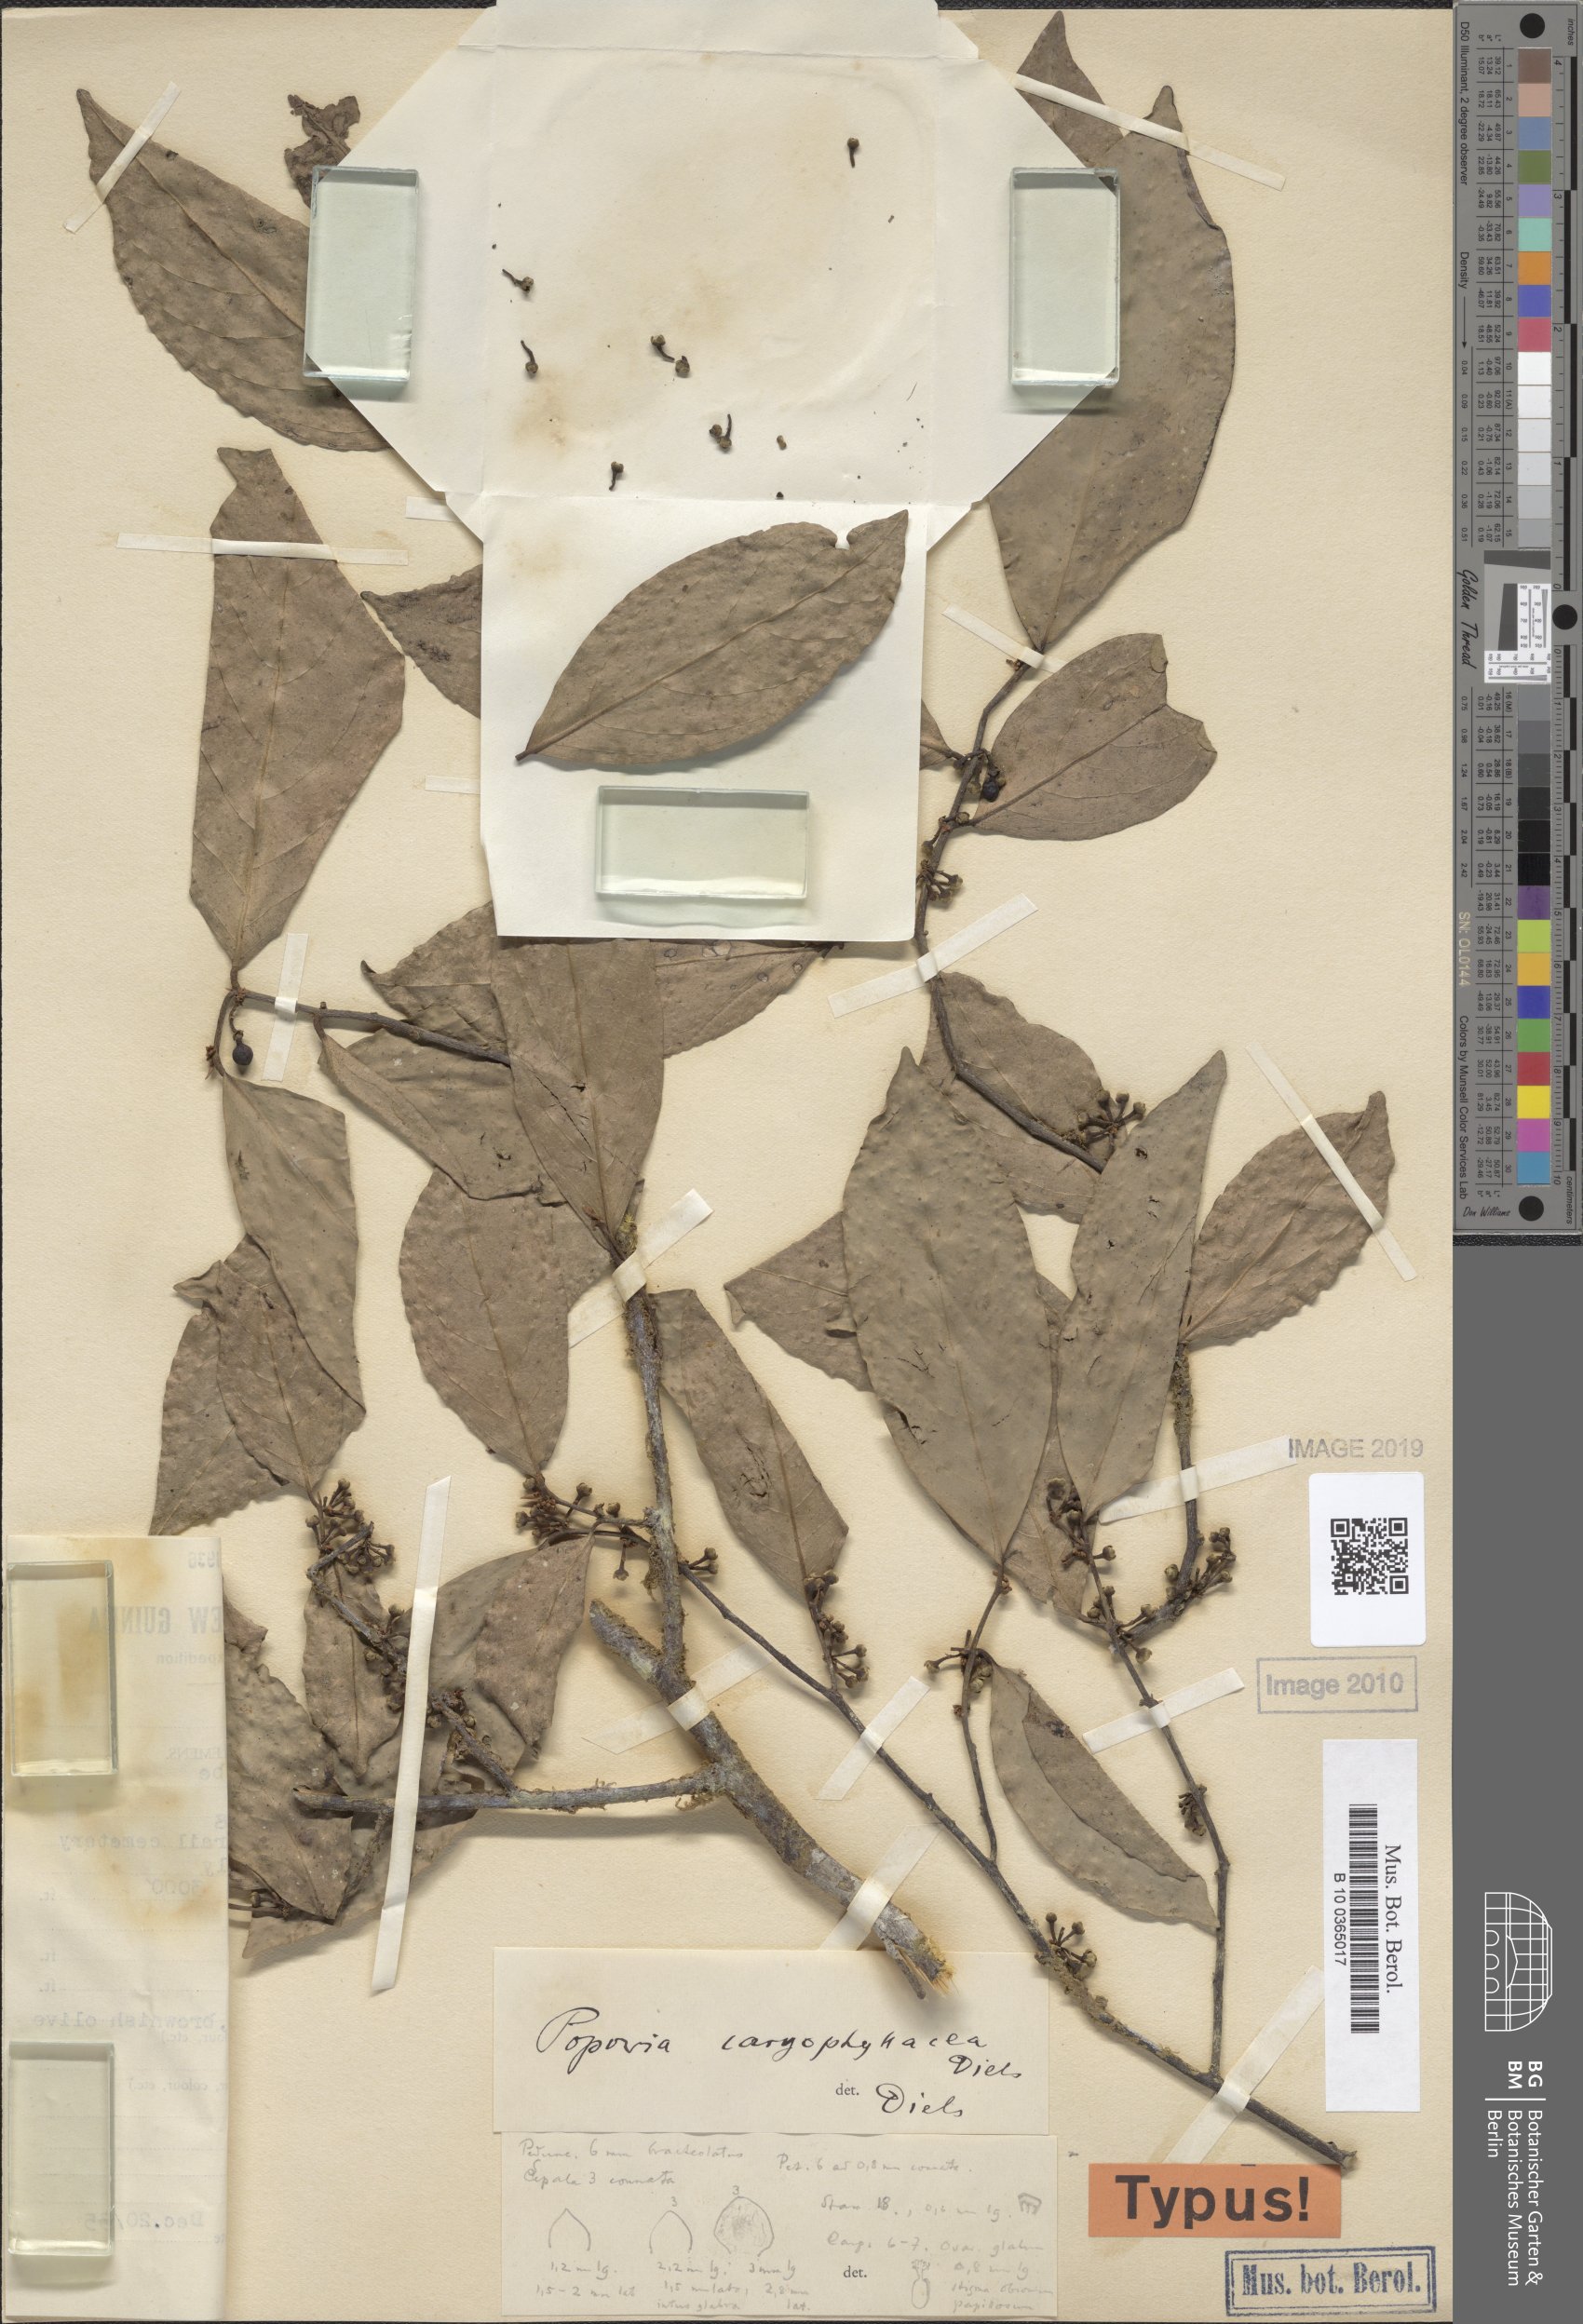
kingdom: Plantae
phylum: Tracheophyta
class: Magnoliopsida
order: Magnoliales
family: Annonaceae
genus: Popowia
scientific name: Popowia
